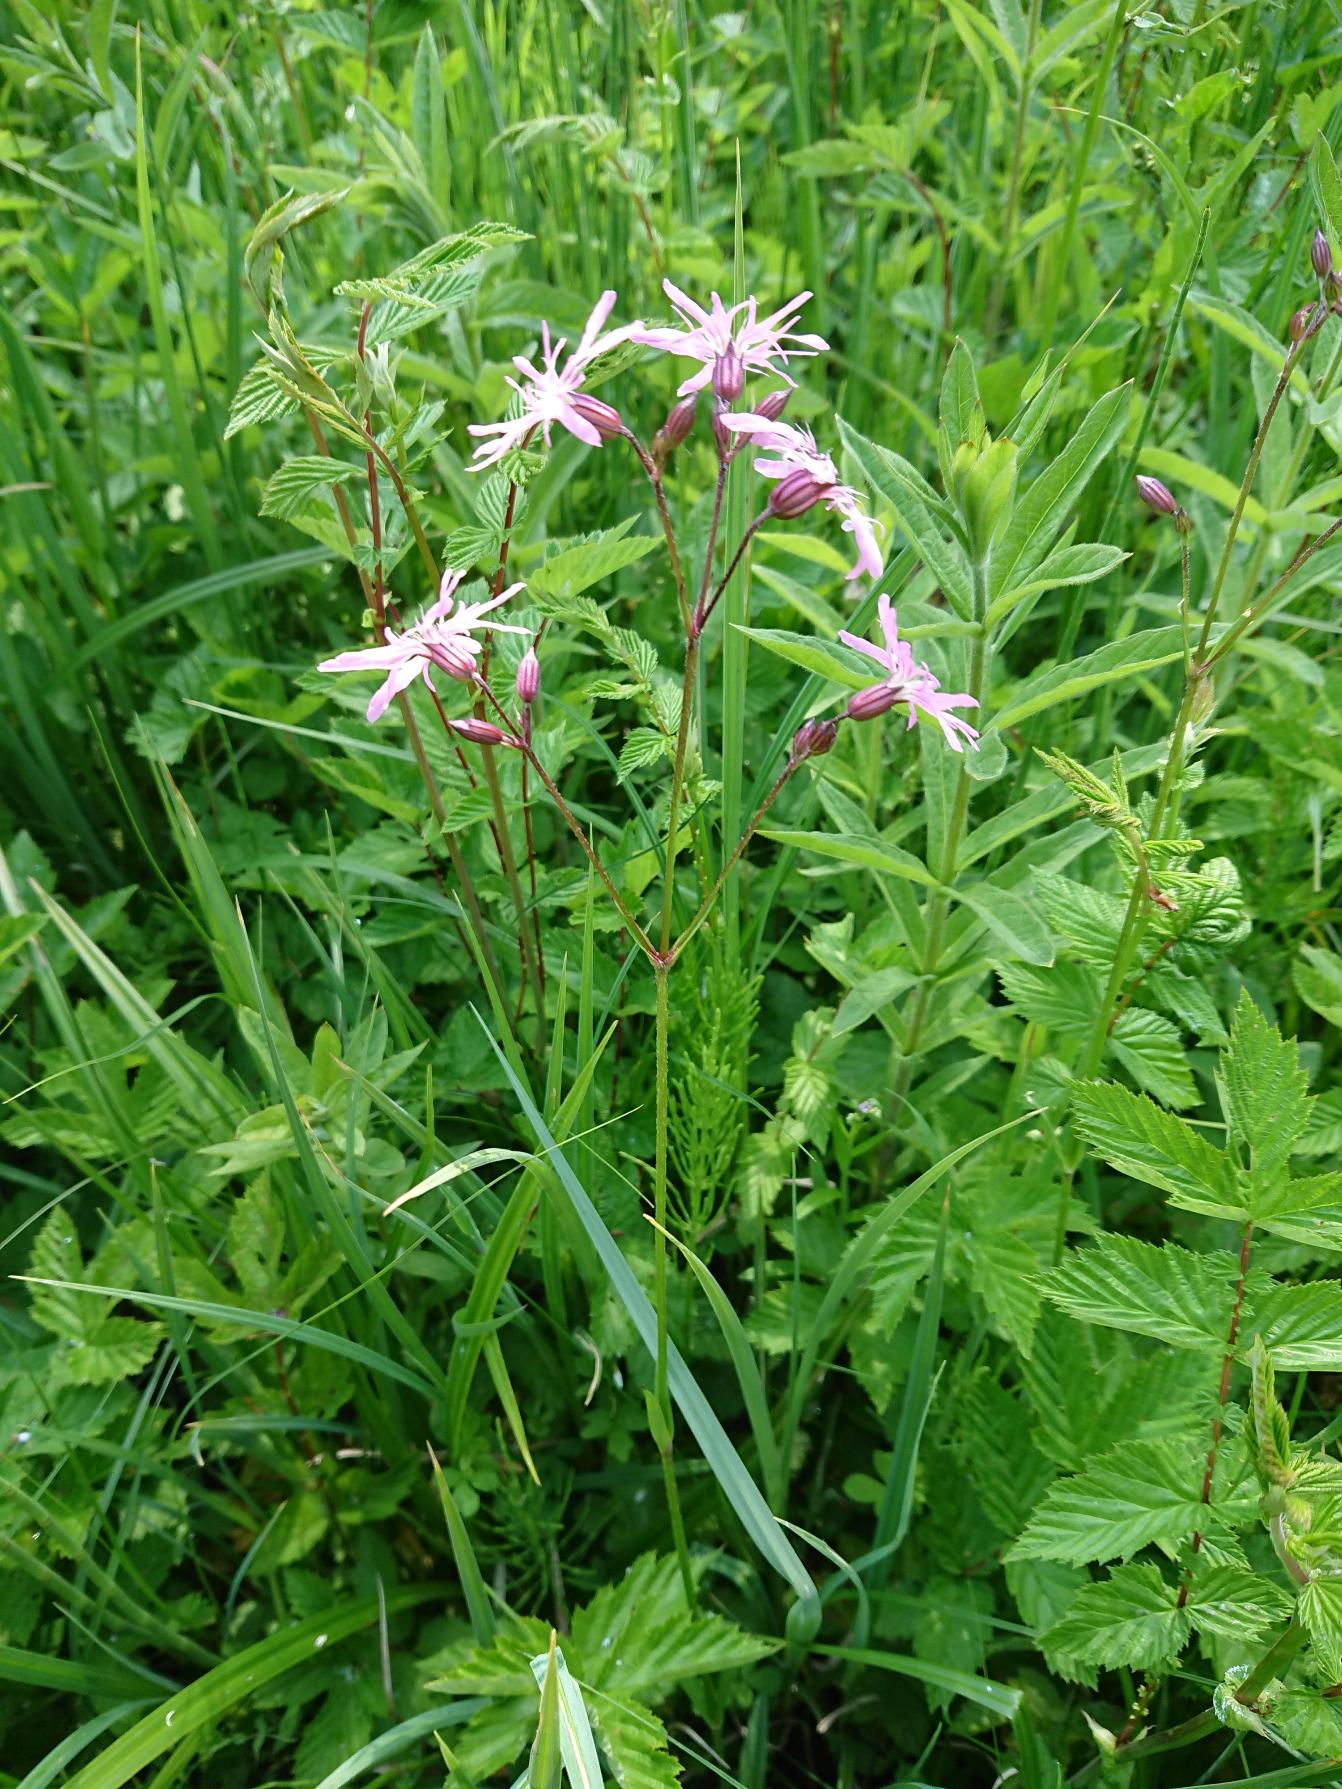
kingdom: Plantae
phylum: Tracheophyta
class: Magnoliopsida
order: Caryophyllales
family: Caryophyllaceae
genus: Silene
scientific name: Silene flos-cuculi
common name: Trævlekrone
